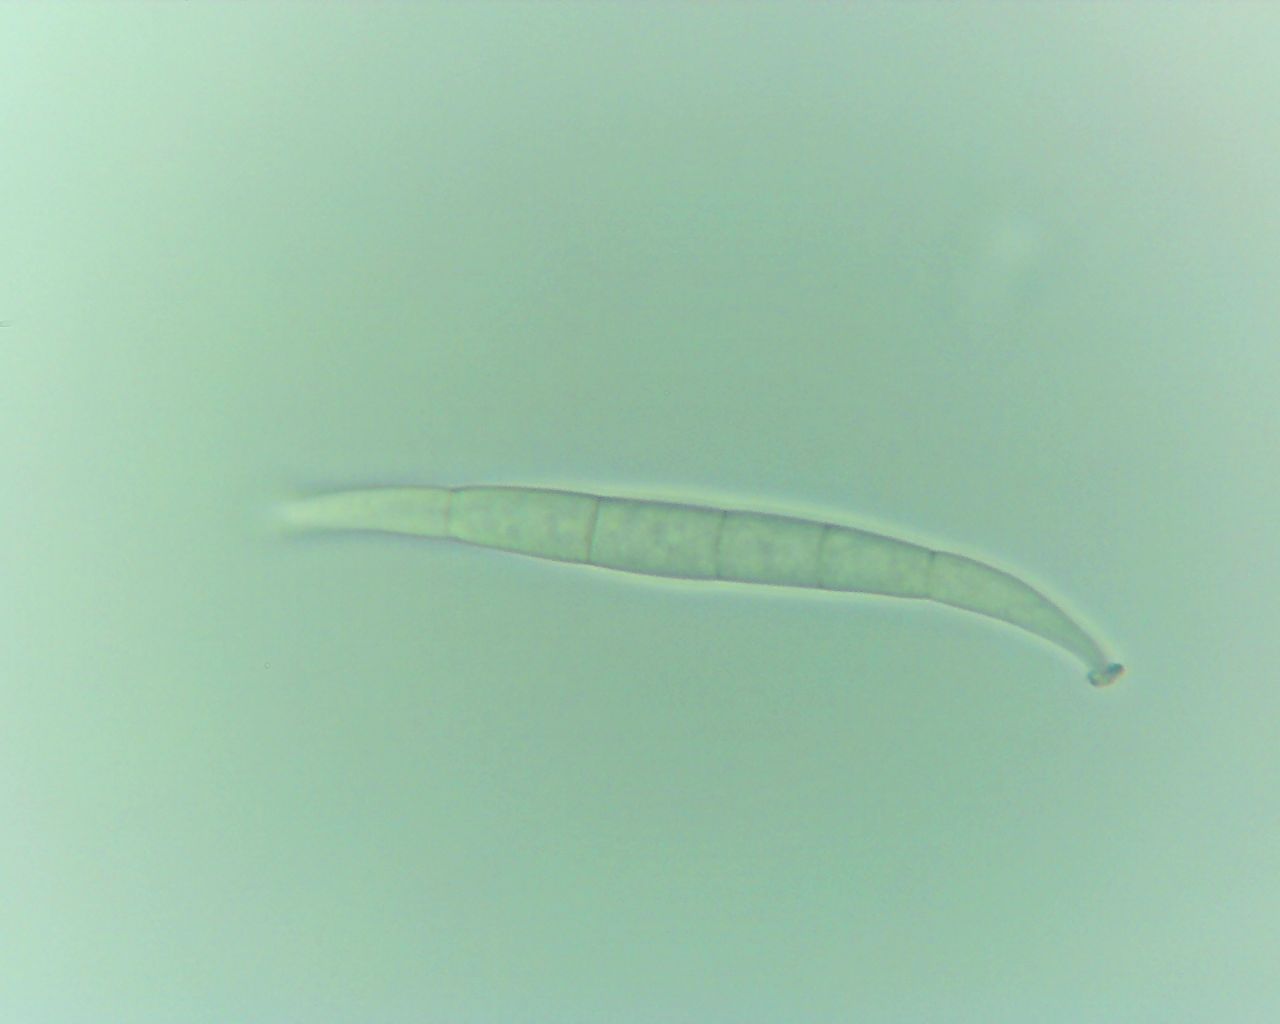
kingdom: Fungi
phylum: Ascomycota
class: Dothideomycetes
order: Pleosporales
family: Phaeosphaeriaceae
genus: Phaeosphaeria
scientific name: Phaeosphaeria sowerbyi
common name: kål-kulkegle
